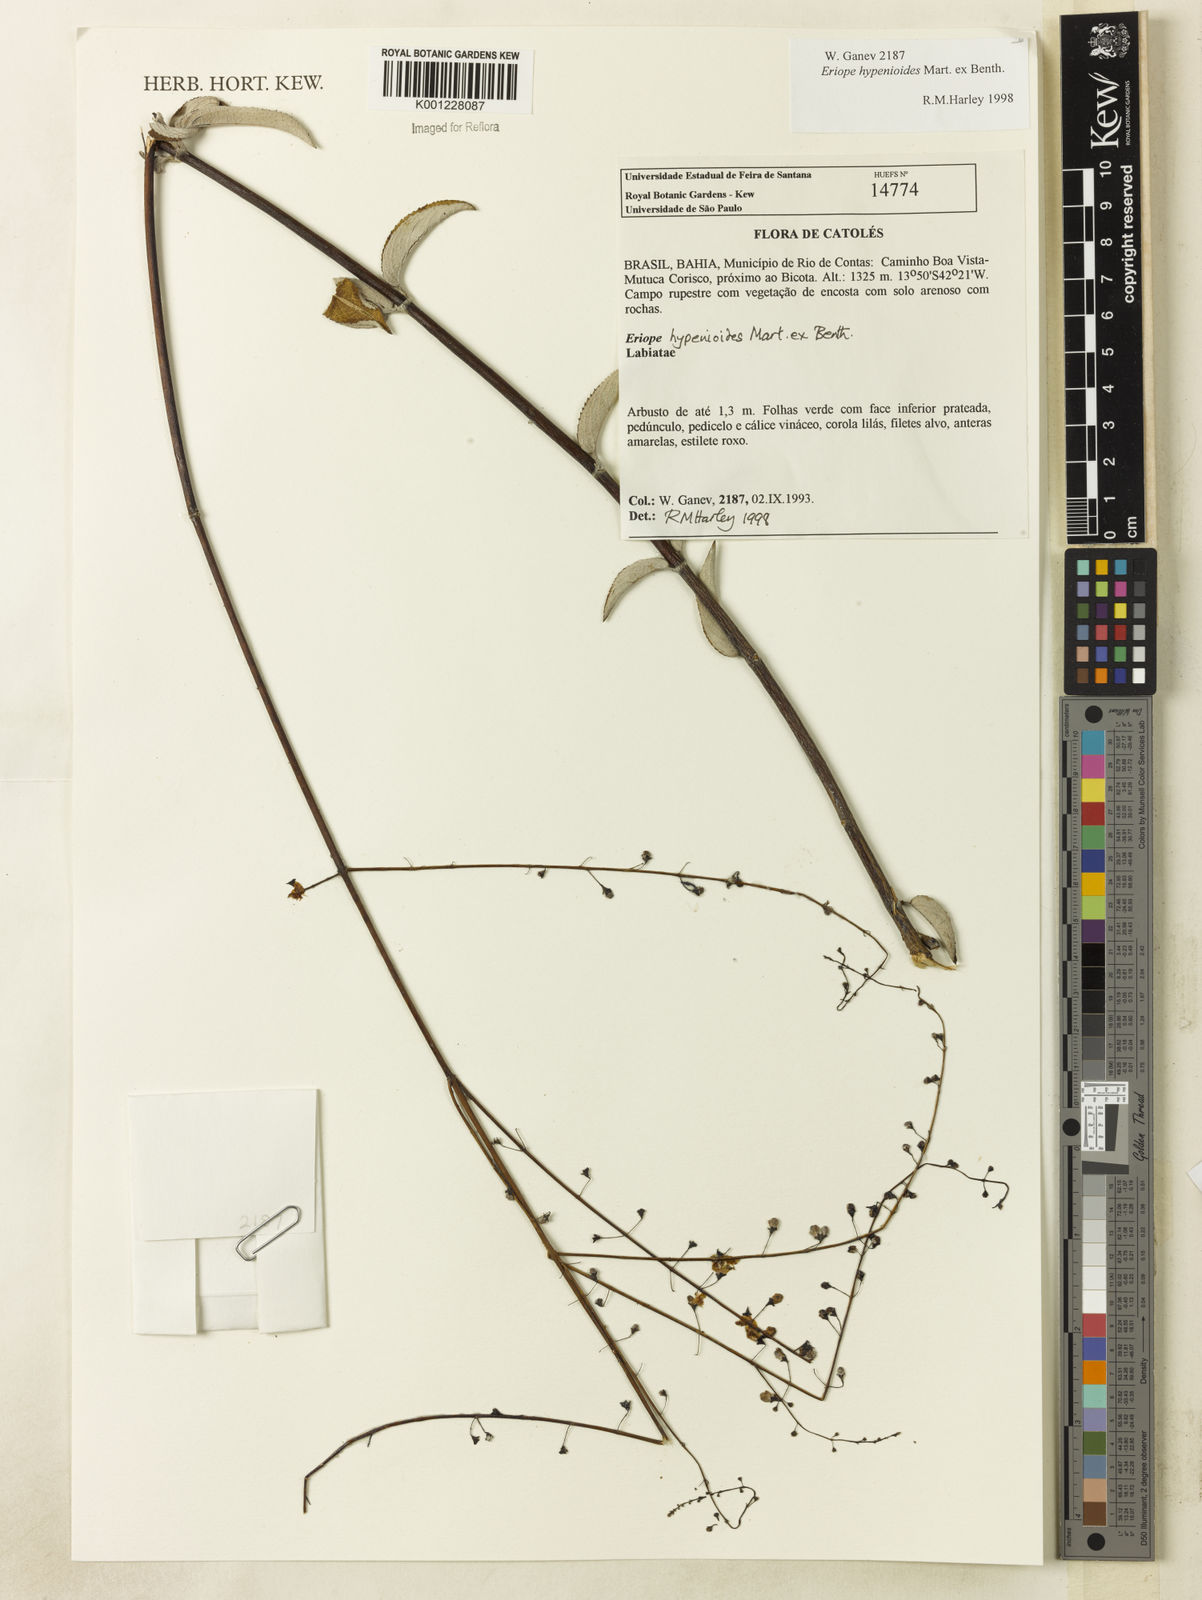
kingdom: Plantae
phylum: Tracheophyta
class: Magnoliopsida
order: Lamiales
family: Lamiaceae
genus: Eriope
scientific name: Eriope hypenioides
